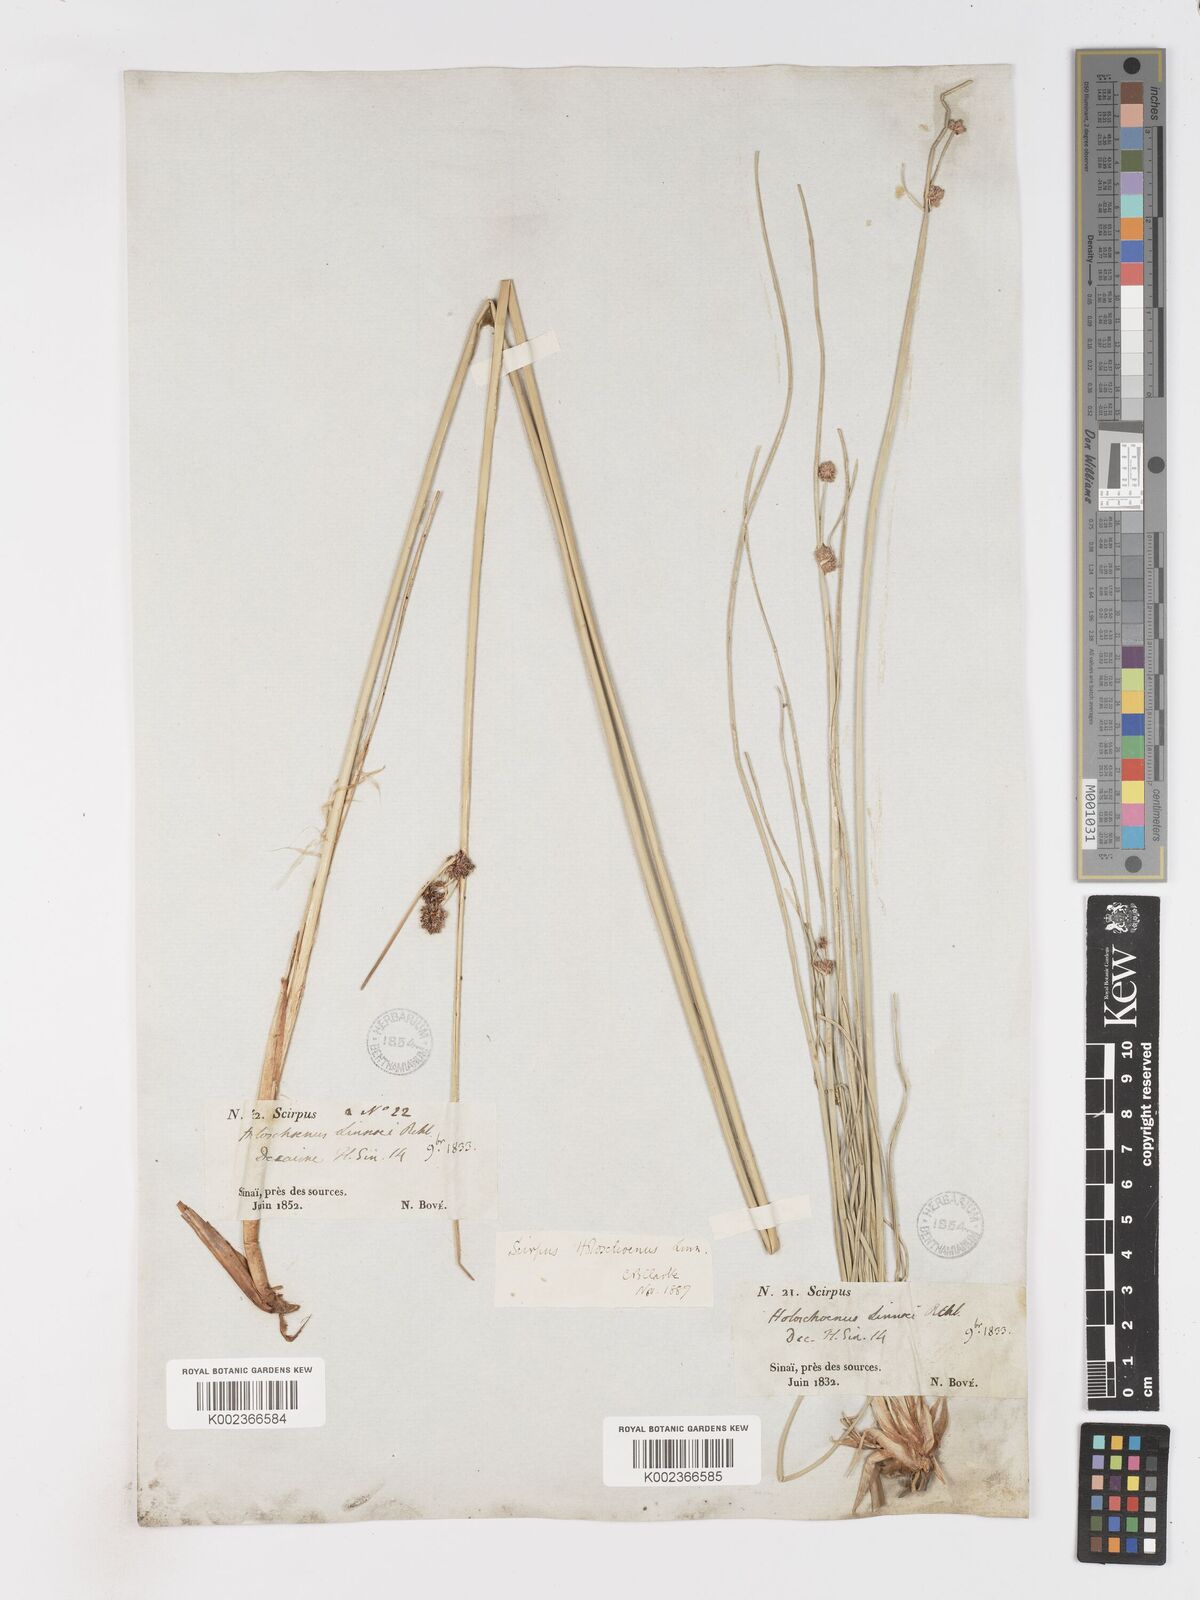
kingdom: Plantae
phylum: Tracheophyta
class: Liliopsida
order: Poales
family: Cyperaceae
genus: Scirpoides
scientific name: Scirpoides holoschoenus
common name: Round-headed club-rush
